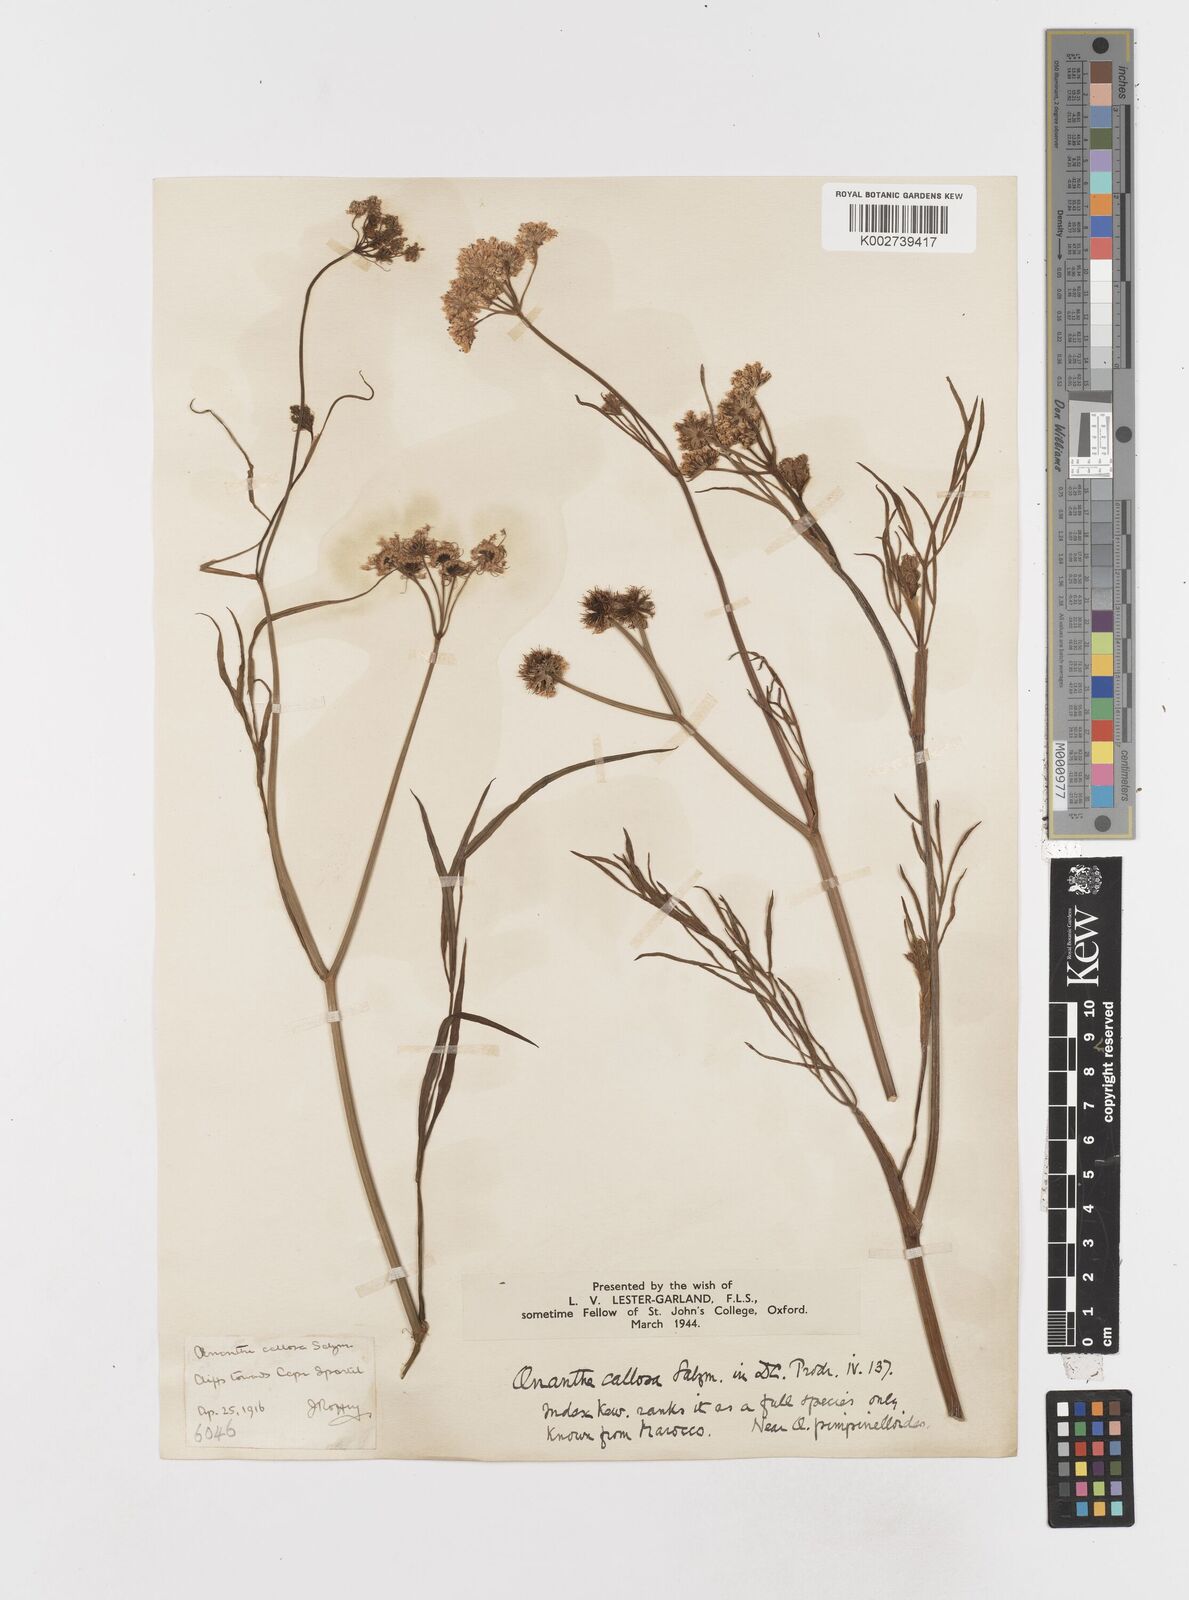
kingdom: Plantae
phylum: Tracheophyta
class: Magnoliopsida
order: Apiales
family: Apiaceae
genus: Oenanthe
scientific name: Oenanthe pimpinelloides
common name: Corky-fruited water-dropwort
